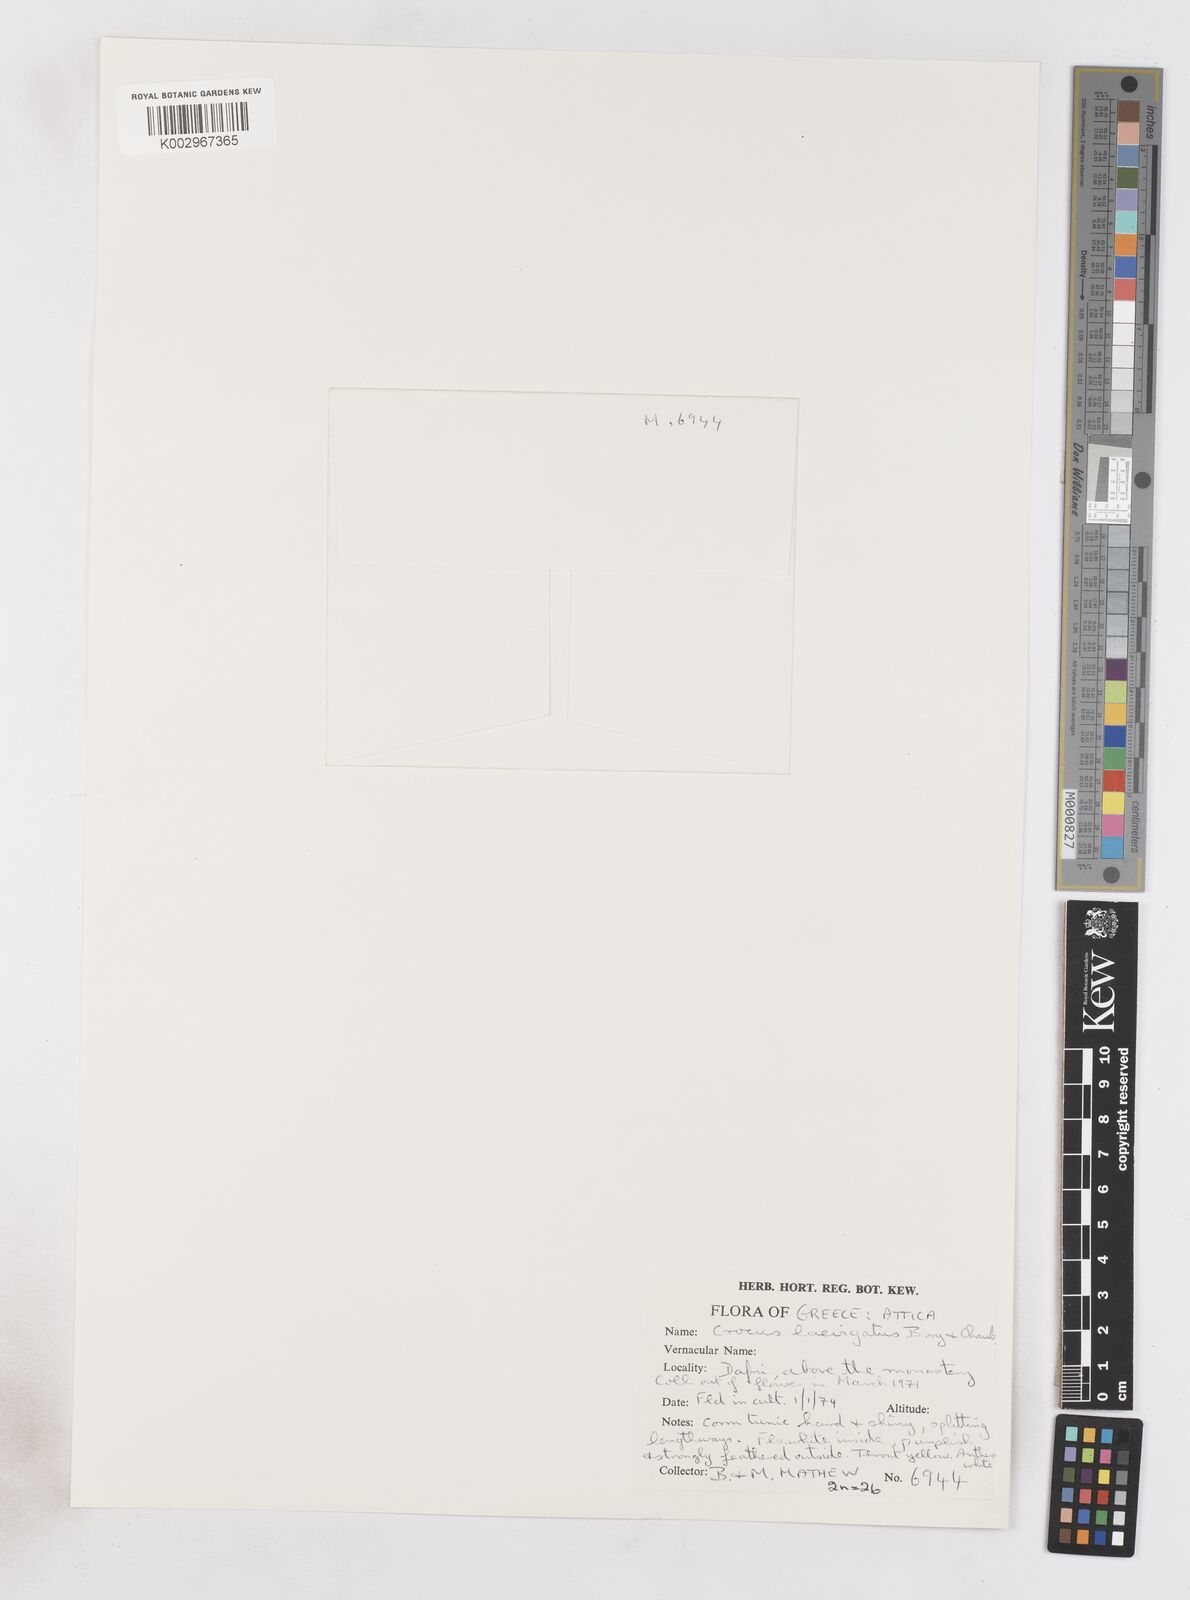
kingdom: Plantae
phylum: Tracheophyta
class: Liliopsida
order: Asparagales
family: Iridaceae
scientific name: Iridaceae
